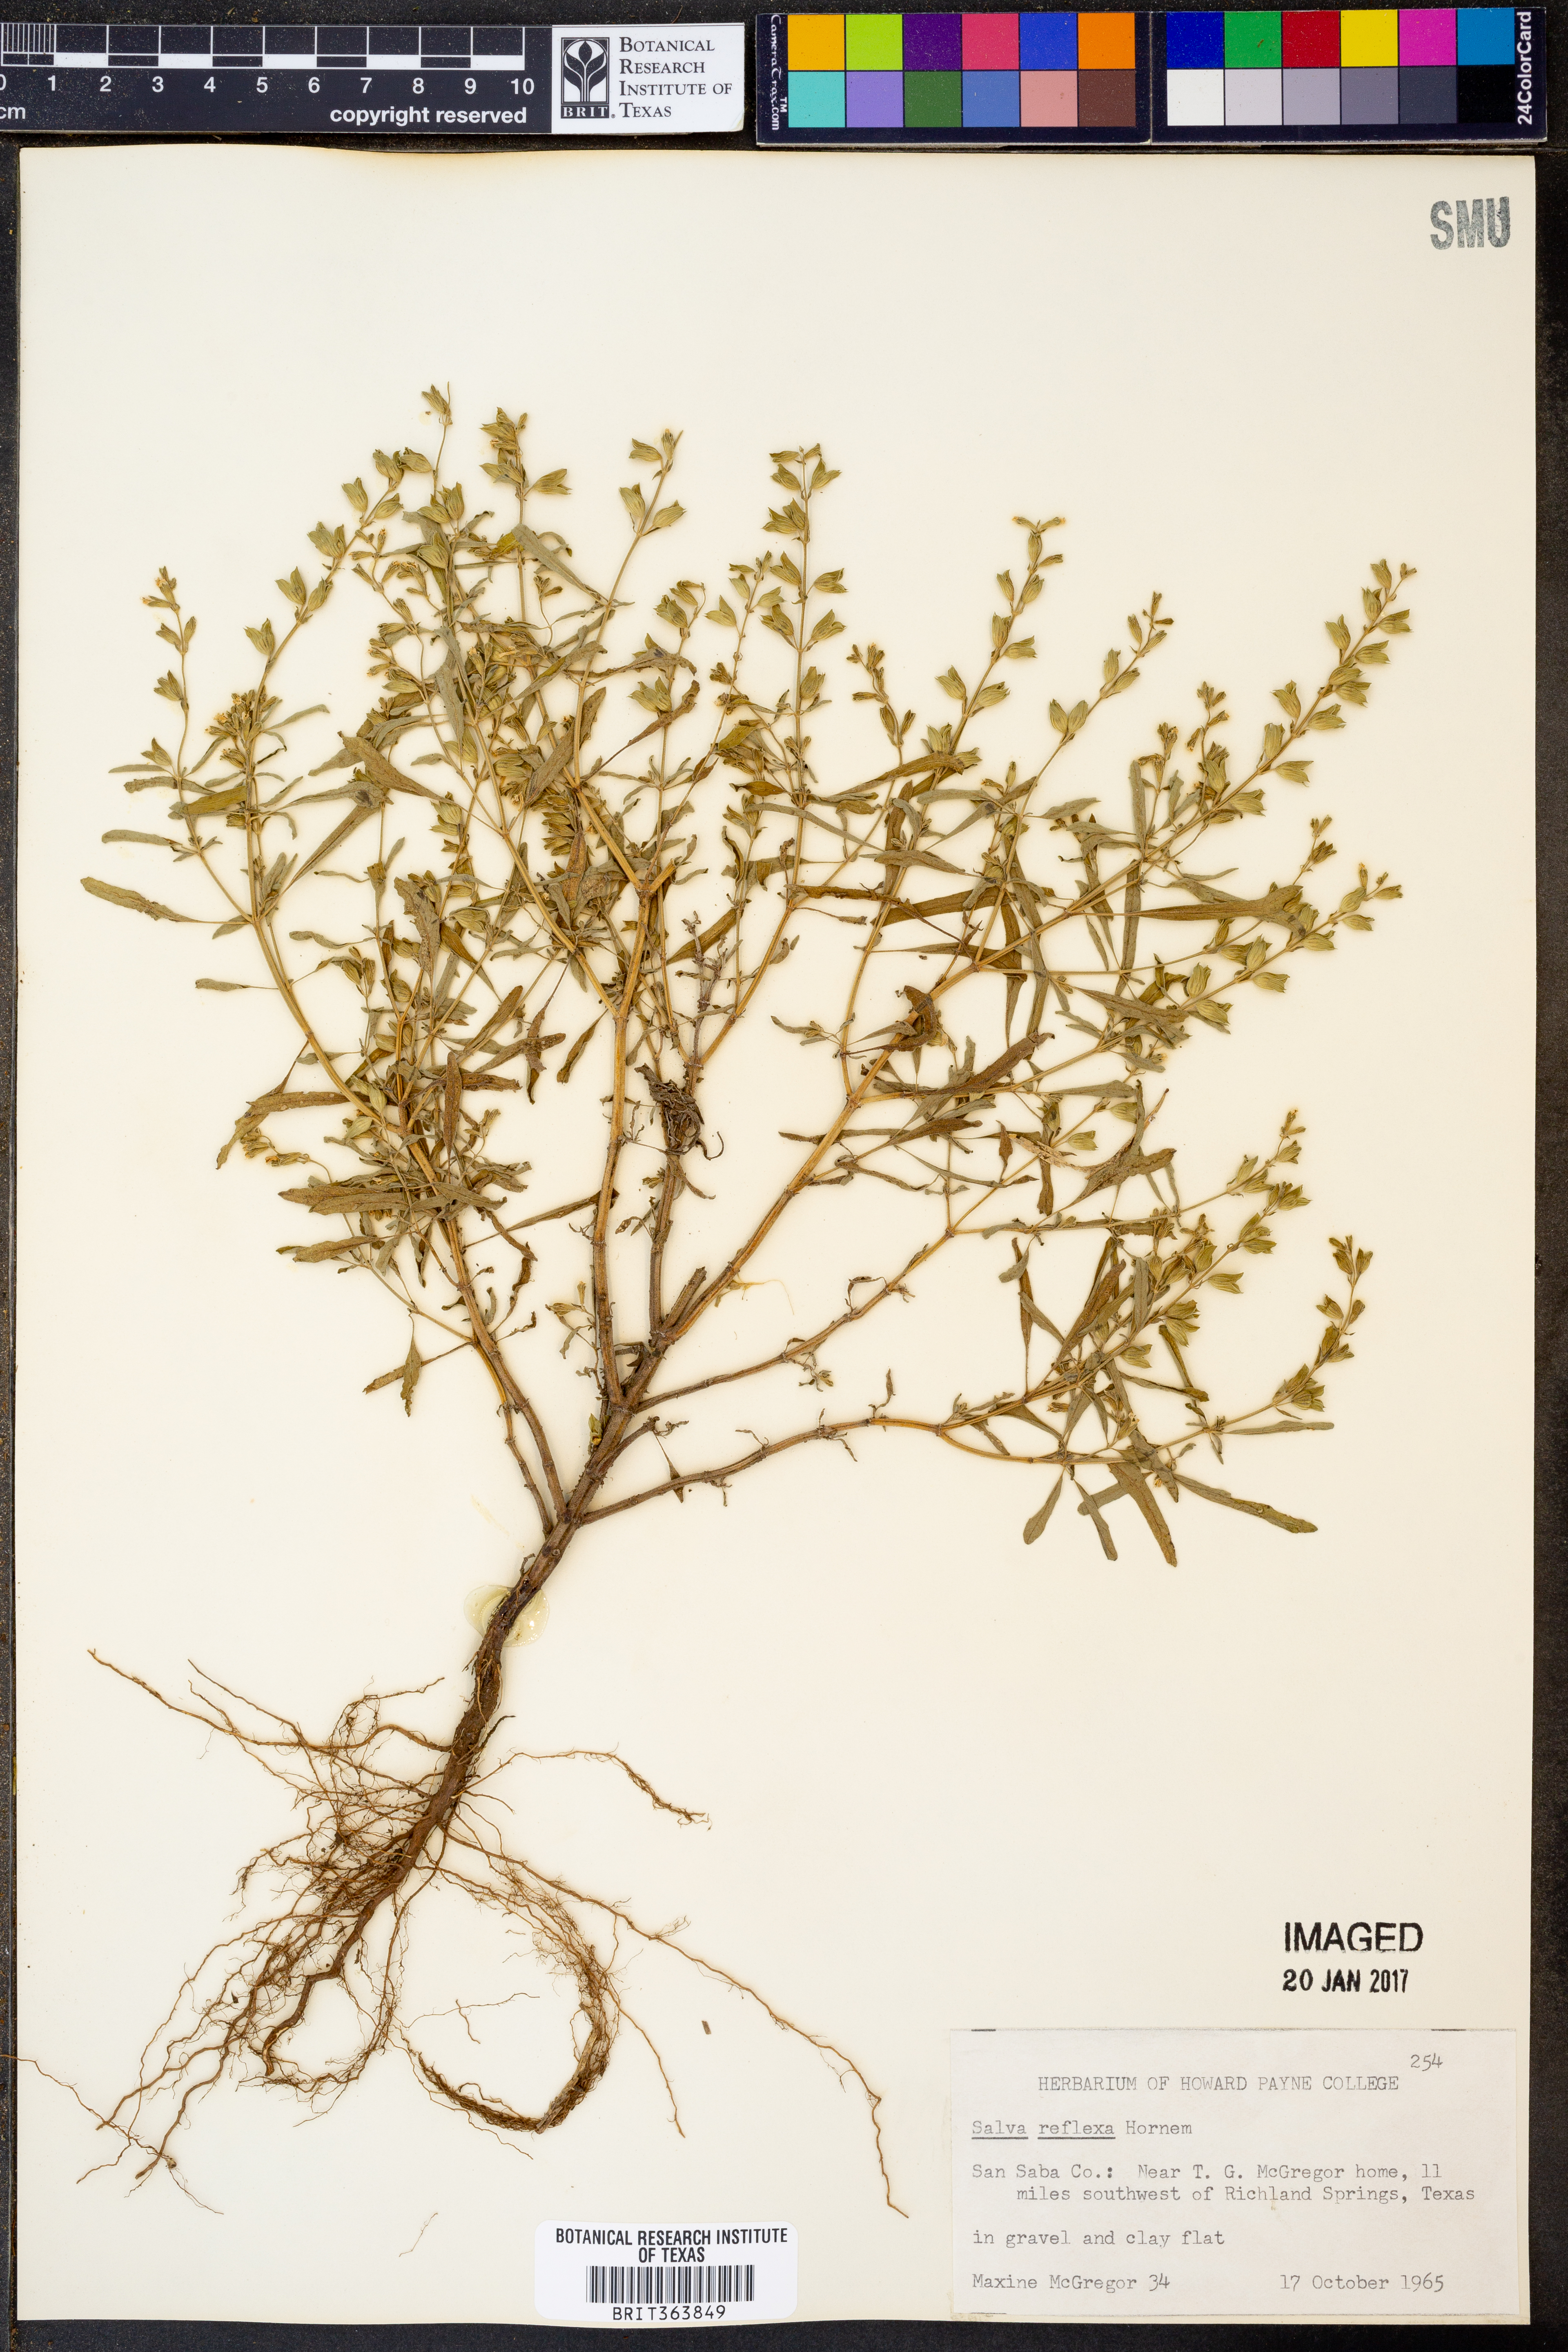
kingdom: Plantae
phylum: Tracheophyta
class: Magnoliopsida
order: Lamiales
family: Lamiaceae
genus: Salvia
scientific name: Salvia reflexa
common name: Mintweed
